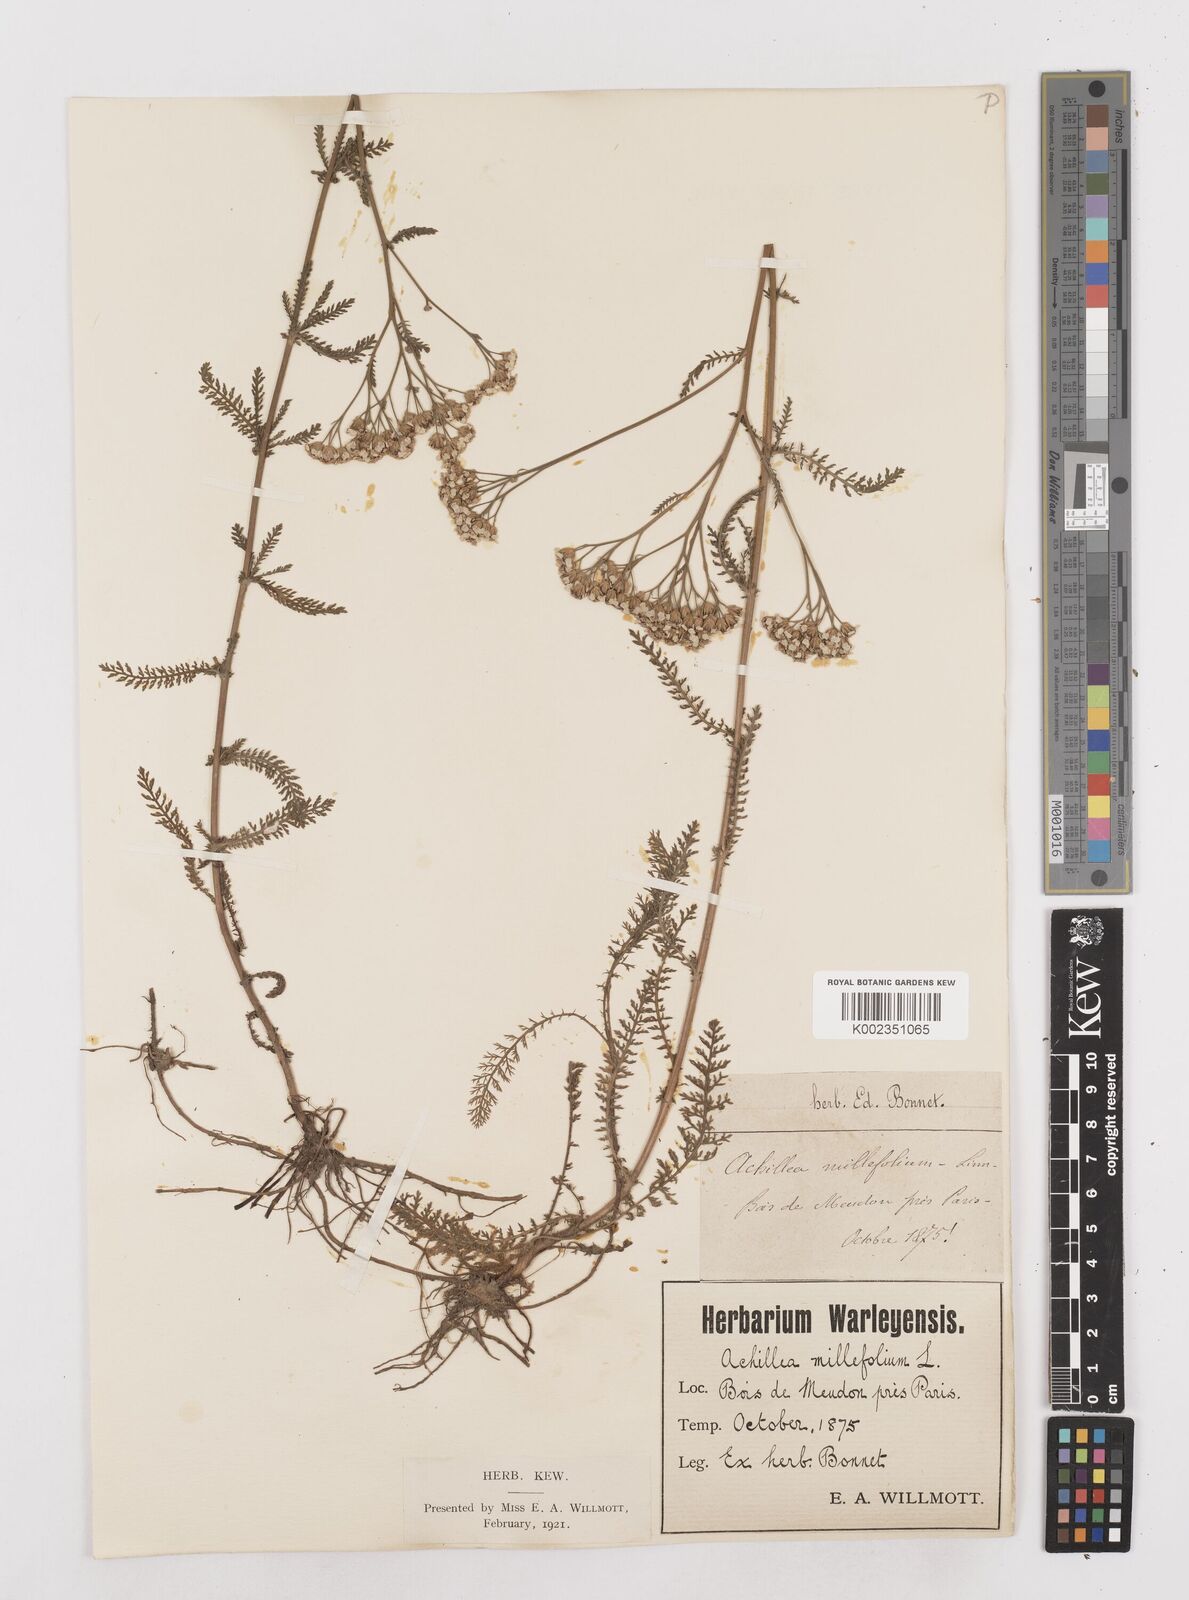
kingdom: Plantae
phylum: Tracheophyta
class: Magnoliopsida
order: Asterales
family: Asteraceae
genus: Achillea
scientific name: Achillea millefolium
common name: Yarrow
